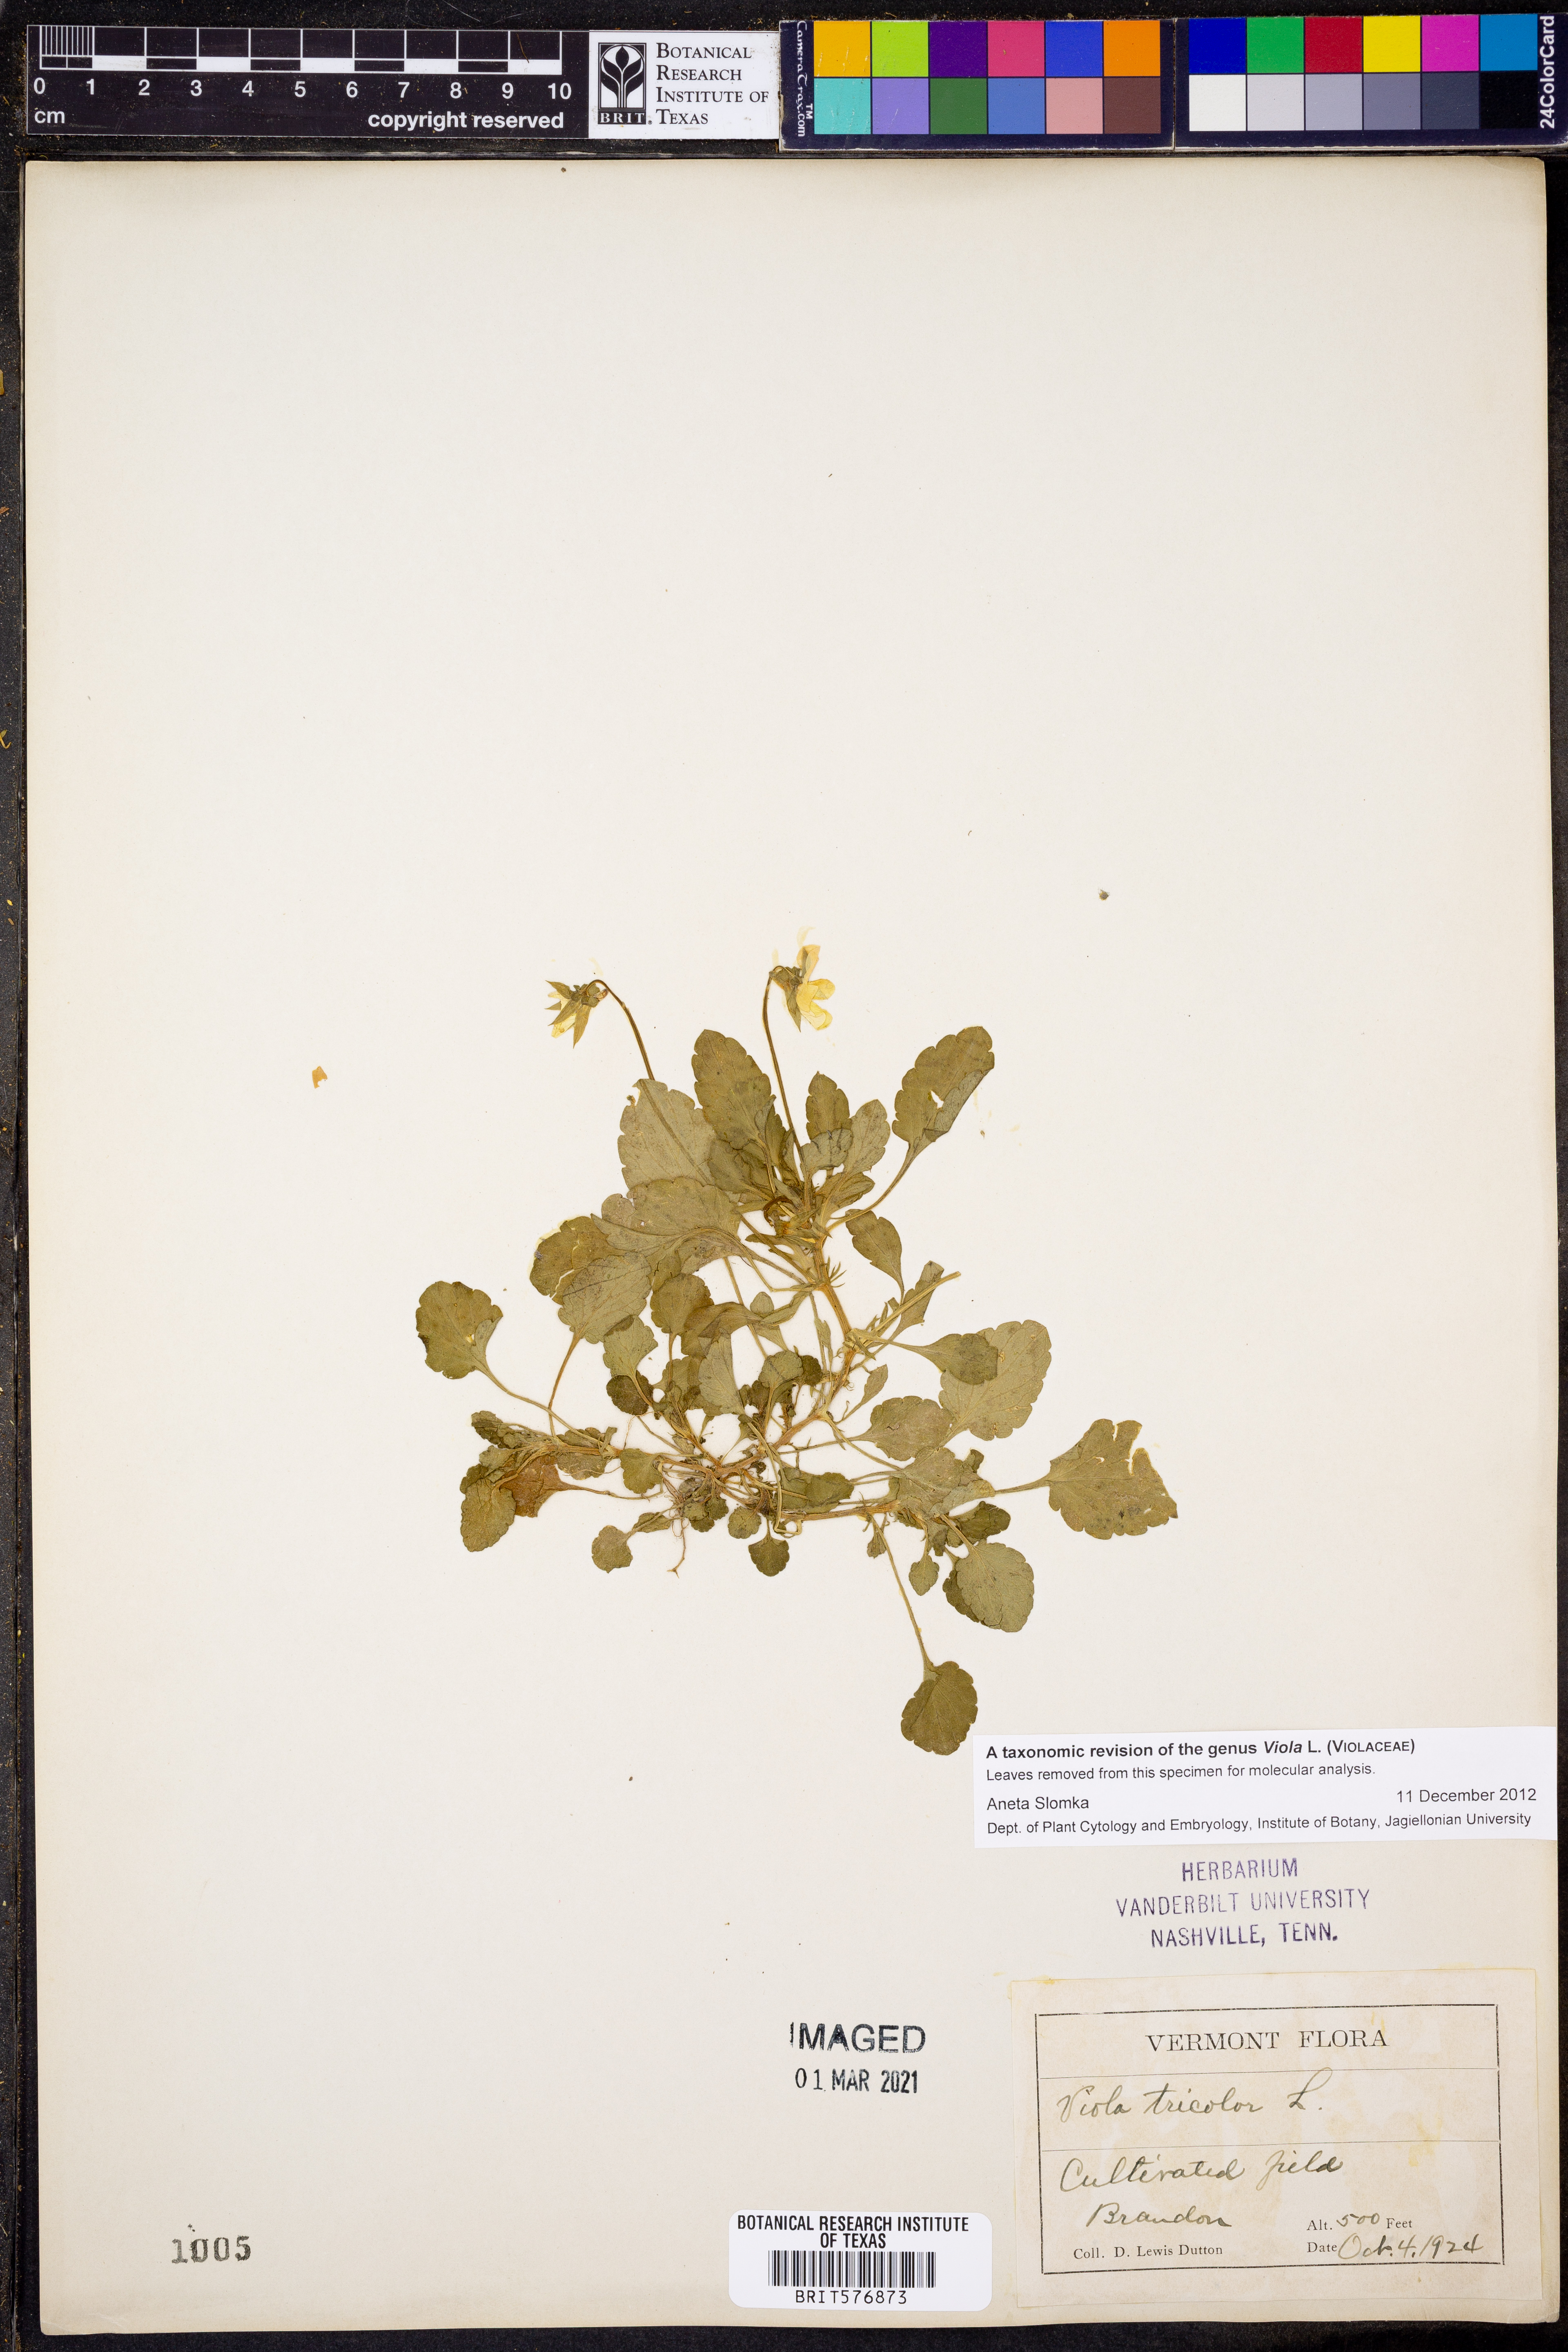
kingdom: Plantae
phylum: Tracheophyta
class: Magnoliopsida
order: Malpighiales
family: Violaceae
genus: Viola
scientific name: Viola tricolor
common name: Pansy
